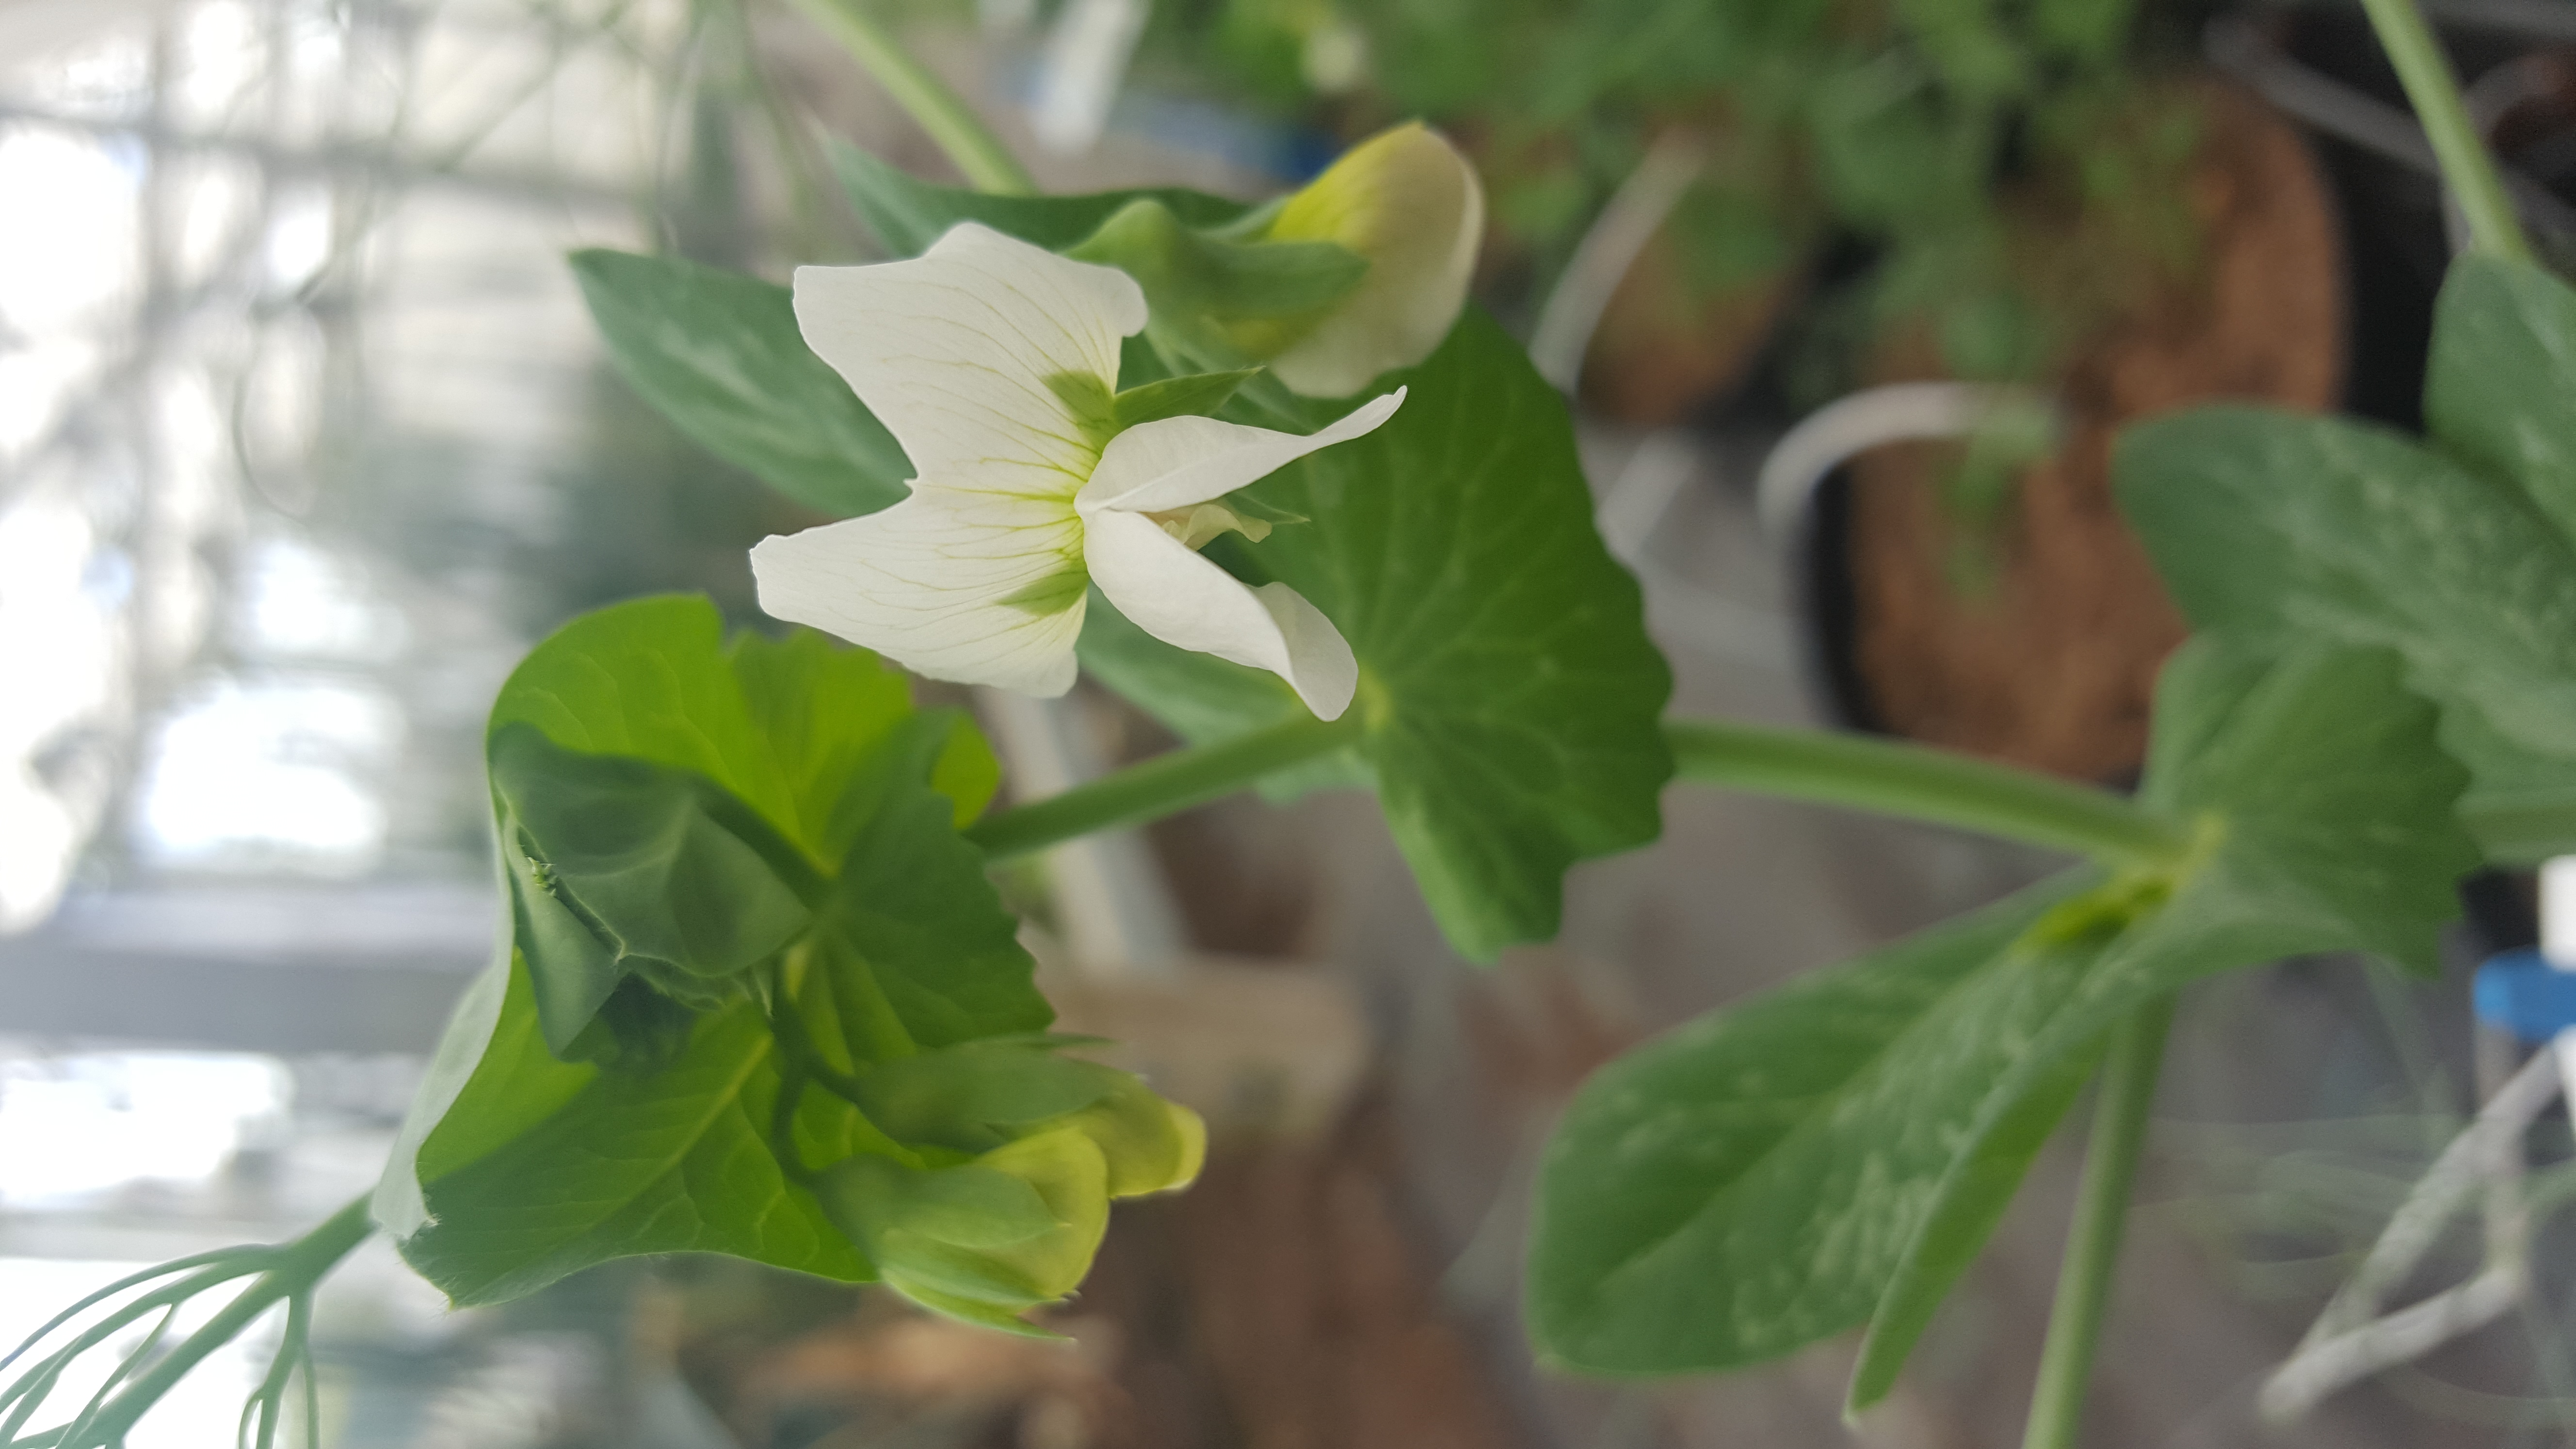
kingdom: Plantae
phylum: Tracheophyta
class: Magnoliopsida
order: Fabales
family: Fabaceae
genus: Lathyrus
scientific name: Lathyrus oleraceus
